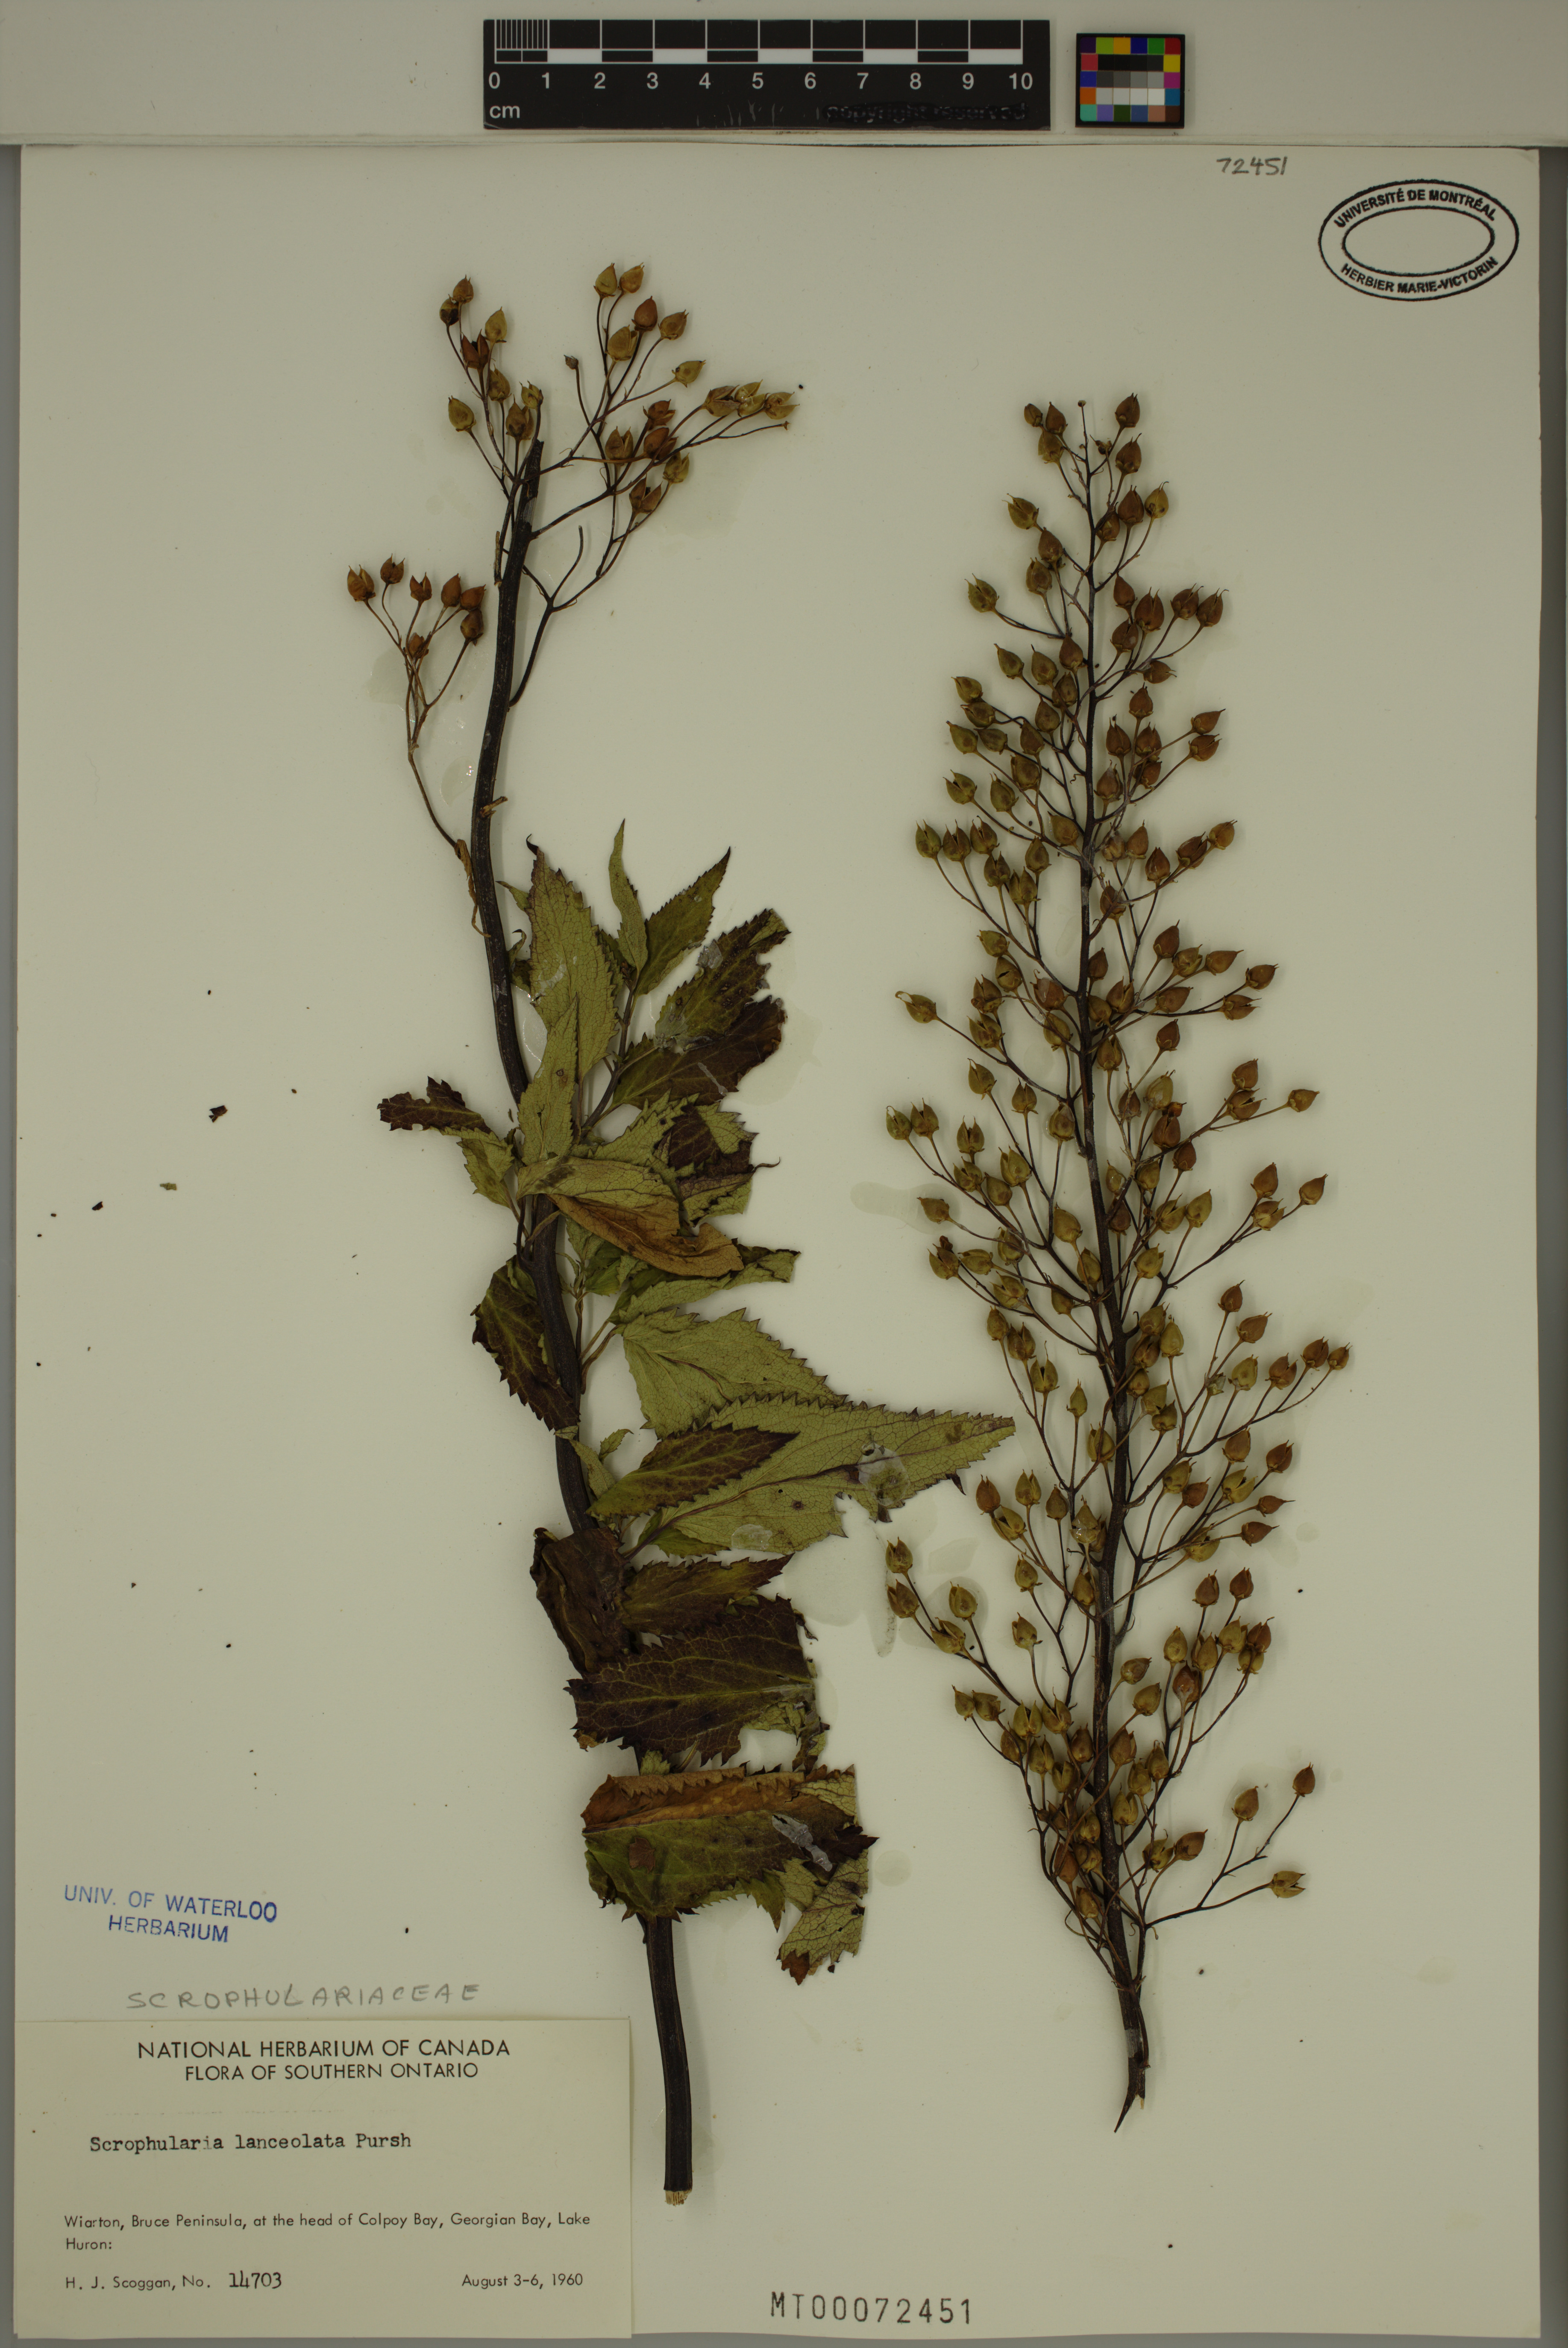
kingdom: Plantae
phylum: Tracheophyta
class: Magnoliopsida
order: Lamiales
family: Scrophulariaceae
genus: Scrophularia
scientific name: Scrophularia lanceolata
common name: American figwort
